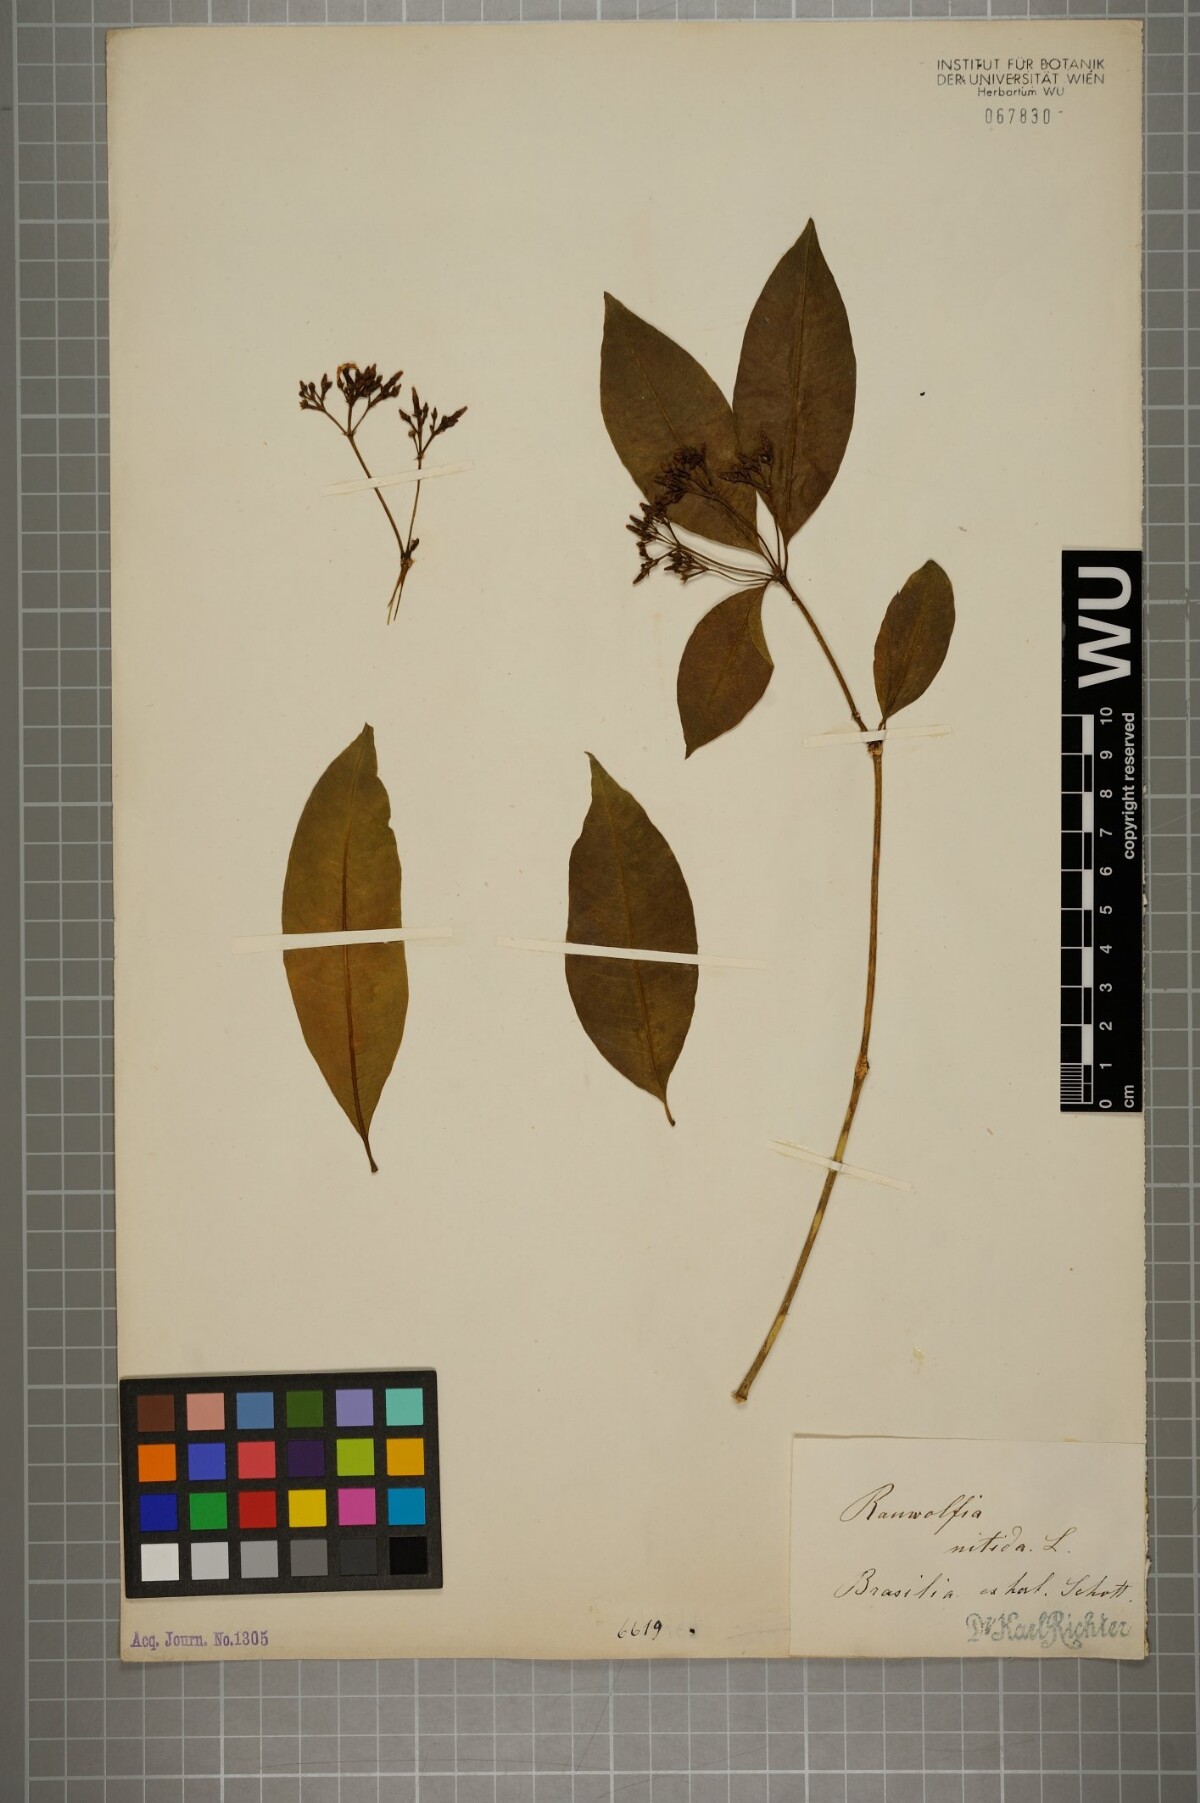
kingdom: Plantae
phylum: Tracheophyta
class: Magnoliopsida
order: Gentianales
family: Apocynaceae
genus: Rauvolfia
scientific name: Rauvolfia nitida
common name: Bitter-ash
